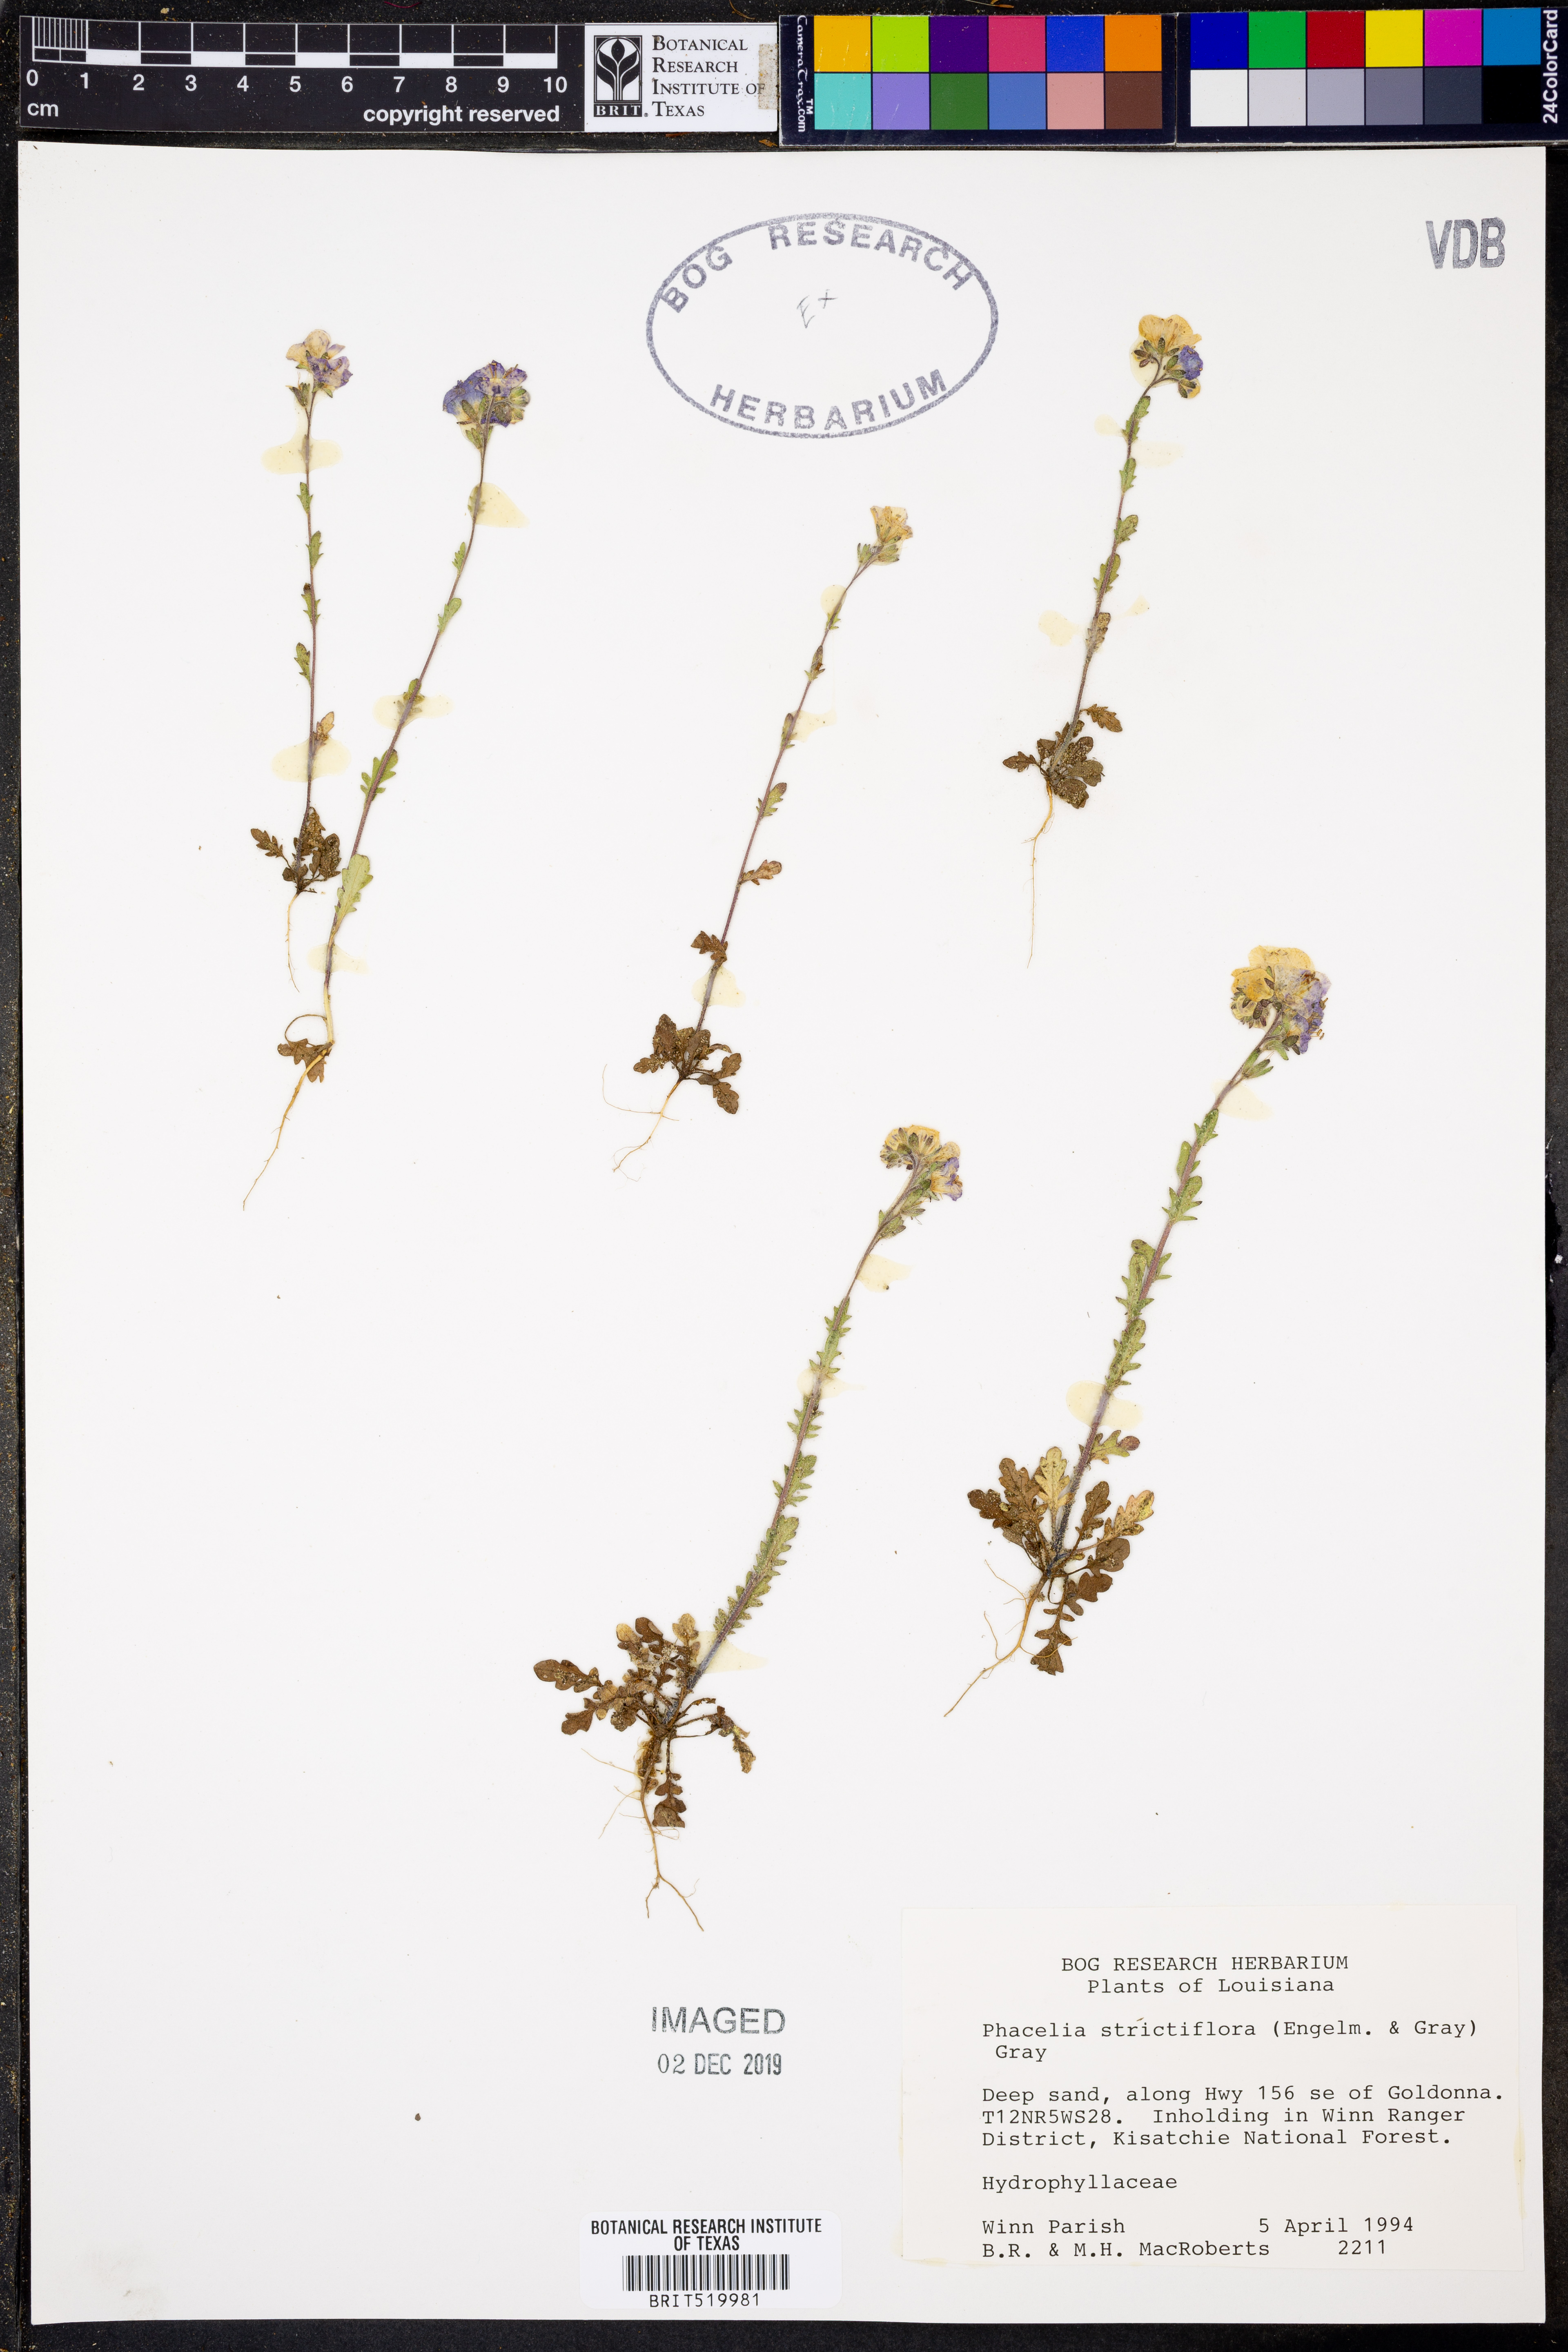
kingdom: Plantae
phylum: Tracheophyta
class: Magnoliopsida
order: Boraginales
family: Hydrophyllaceae
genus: Phacelia
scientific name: Phacelia strictiflora
